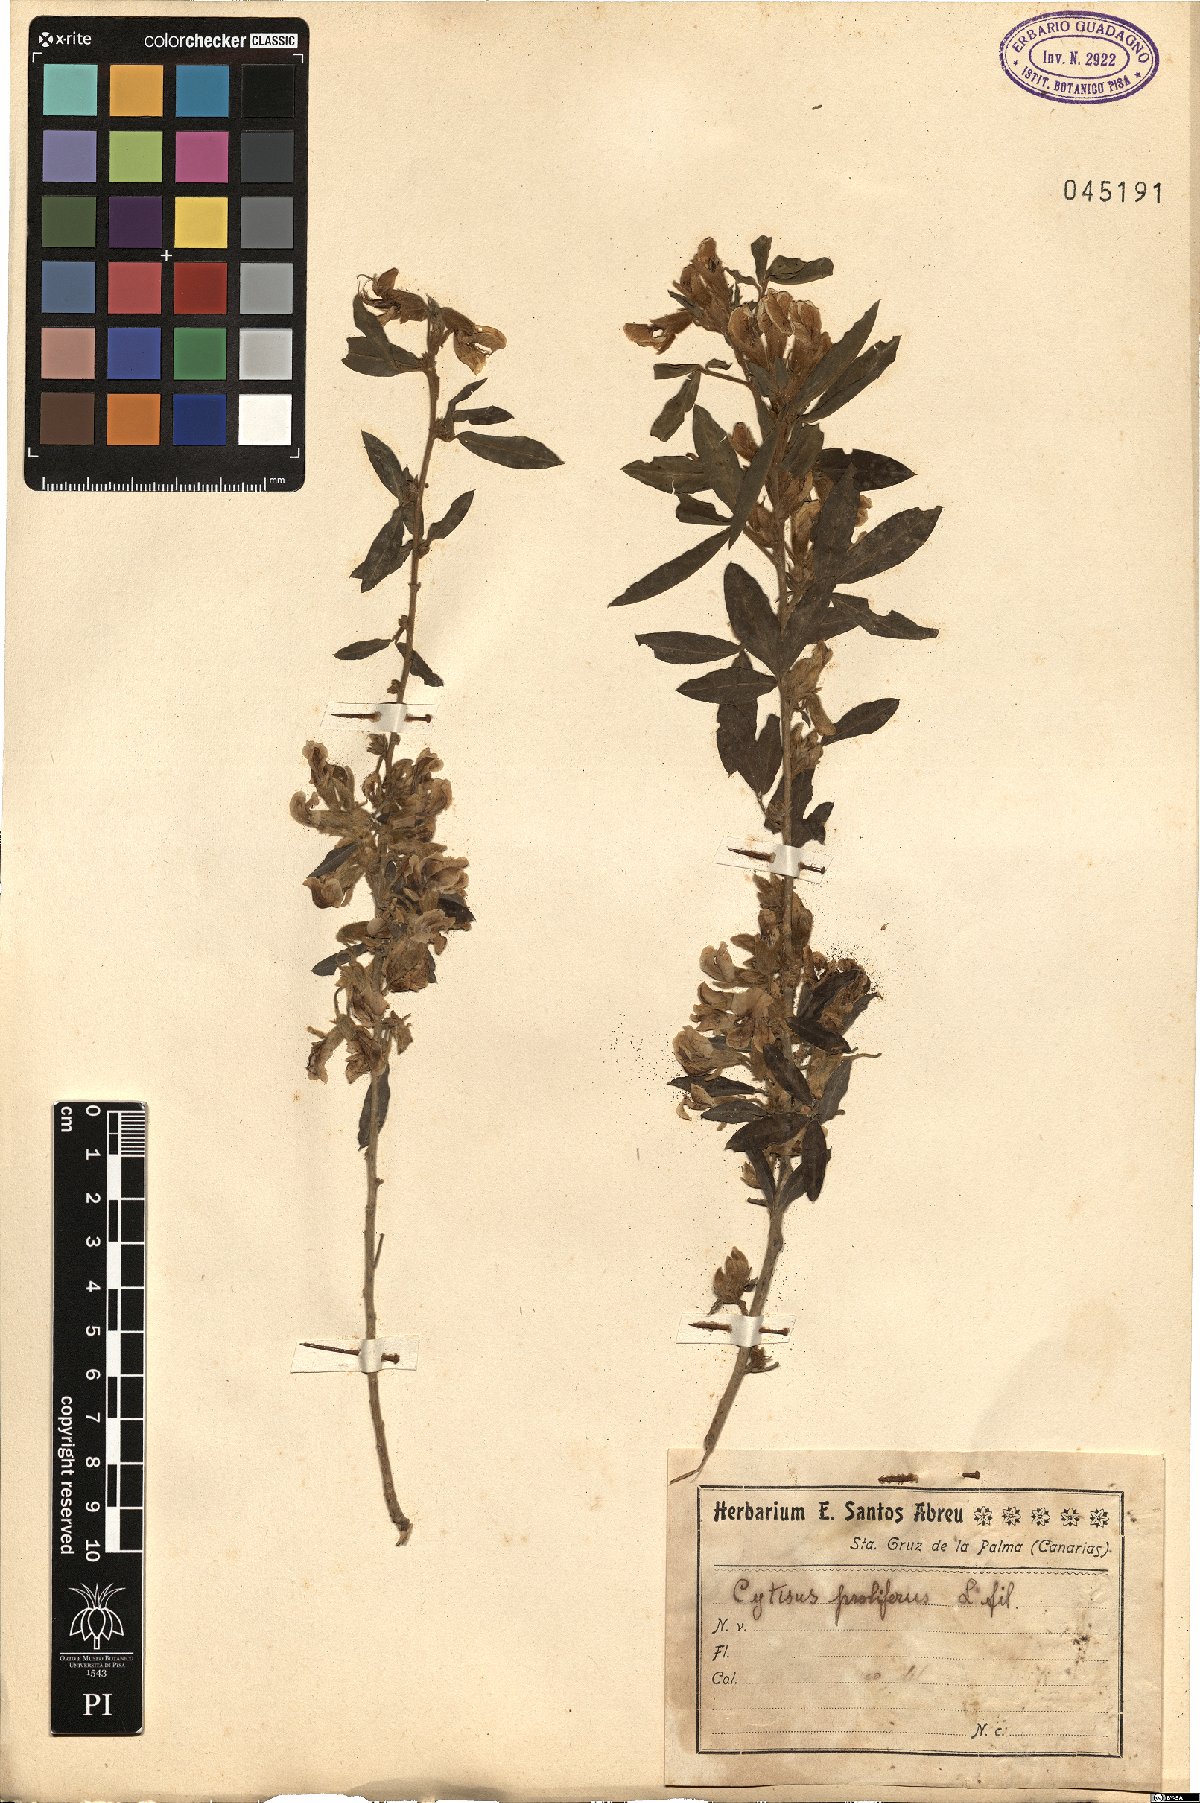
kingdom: Plantae
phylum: Tracheophyta
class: Magnoliopsida
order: Fabales
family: Fabaceae
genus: Cytisus
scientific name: Cytisus proliferus
